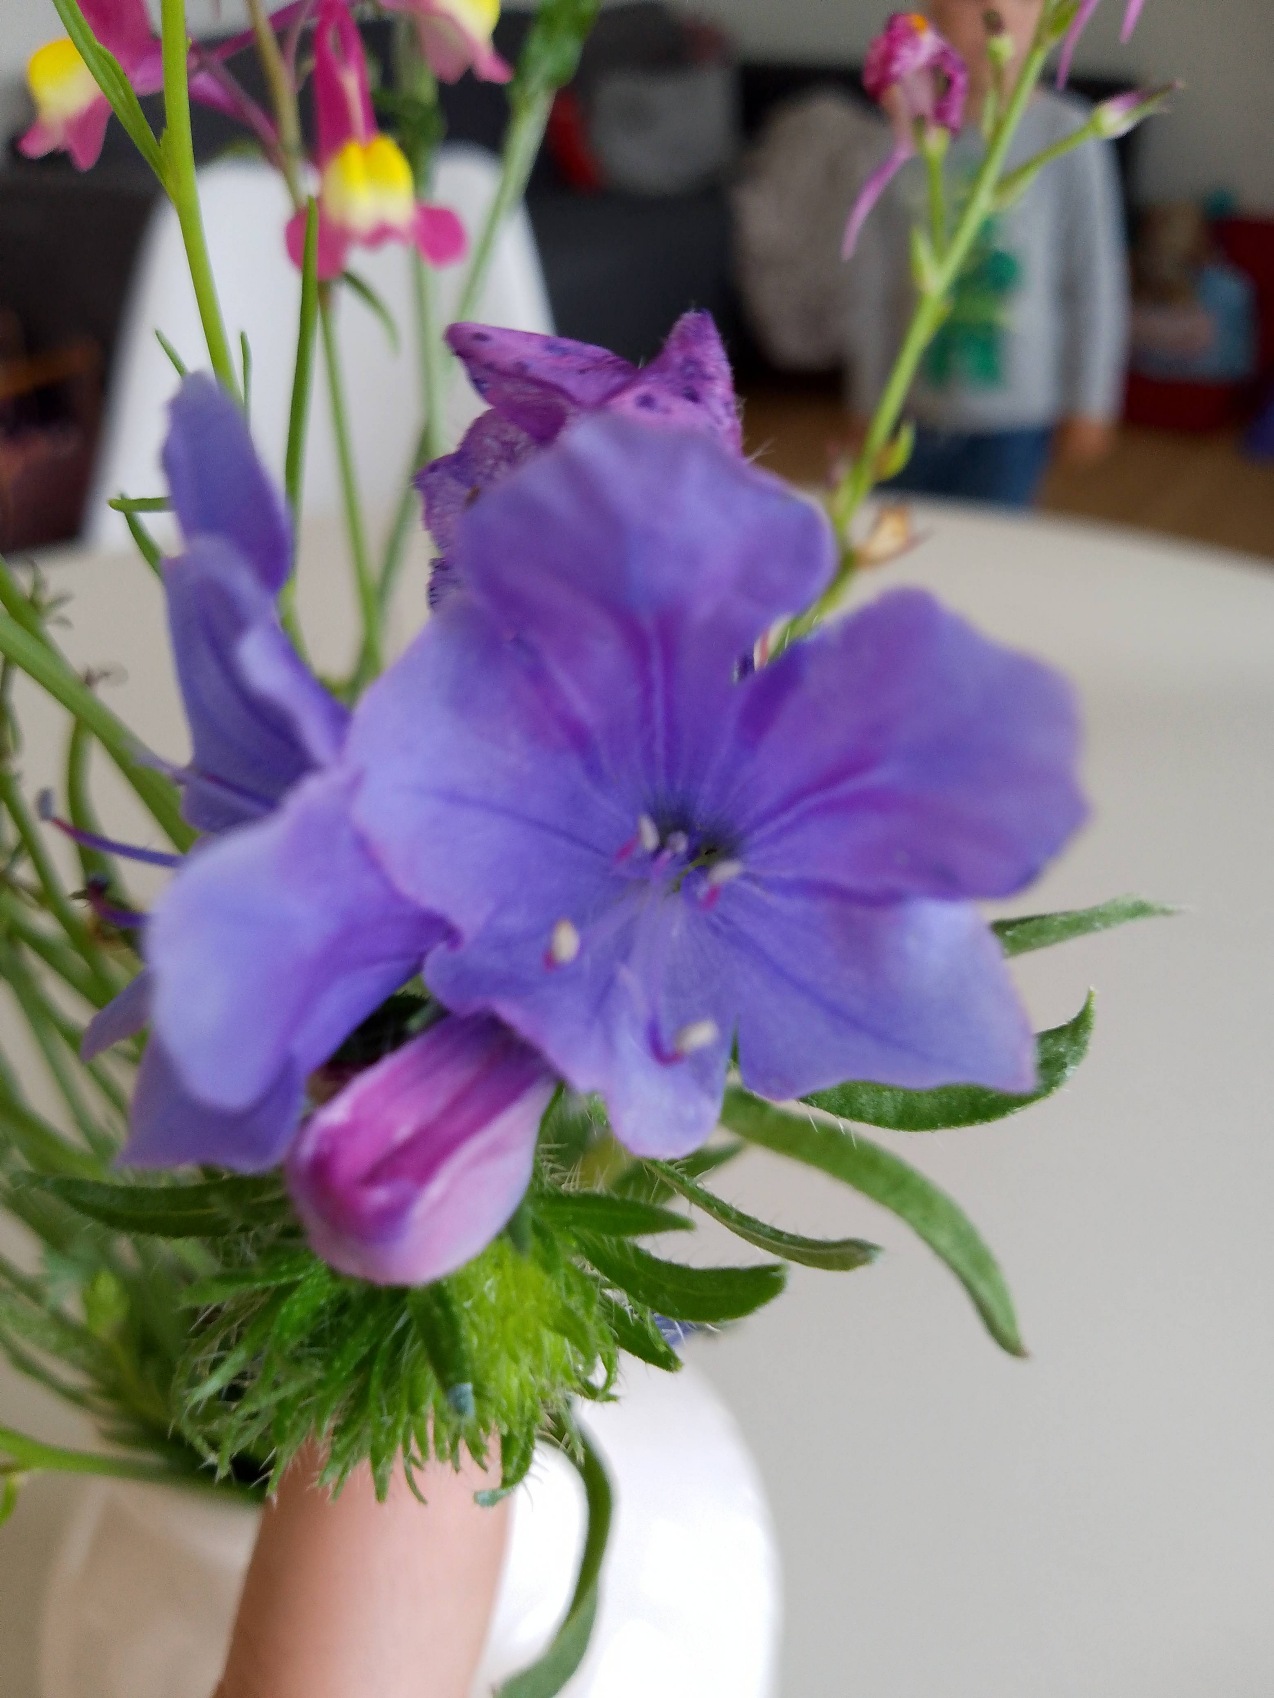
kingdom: Plantae
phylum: Tracheophyta
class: Magnoliopsida
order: Boraginales
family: Boraginaceae
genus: Echium
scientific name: Echium plantagineum
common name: Vejbred-slangehoved
